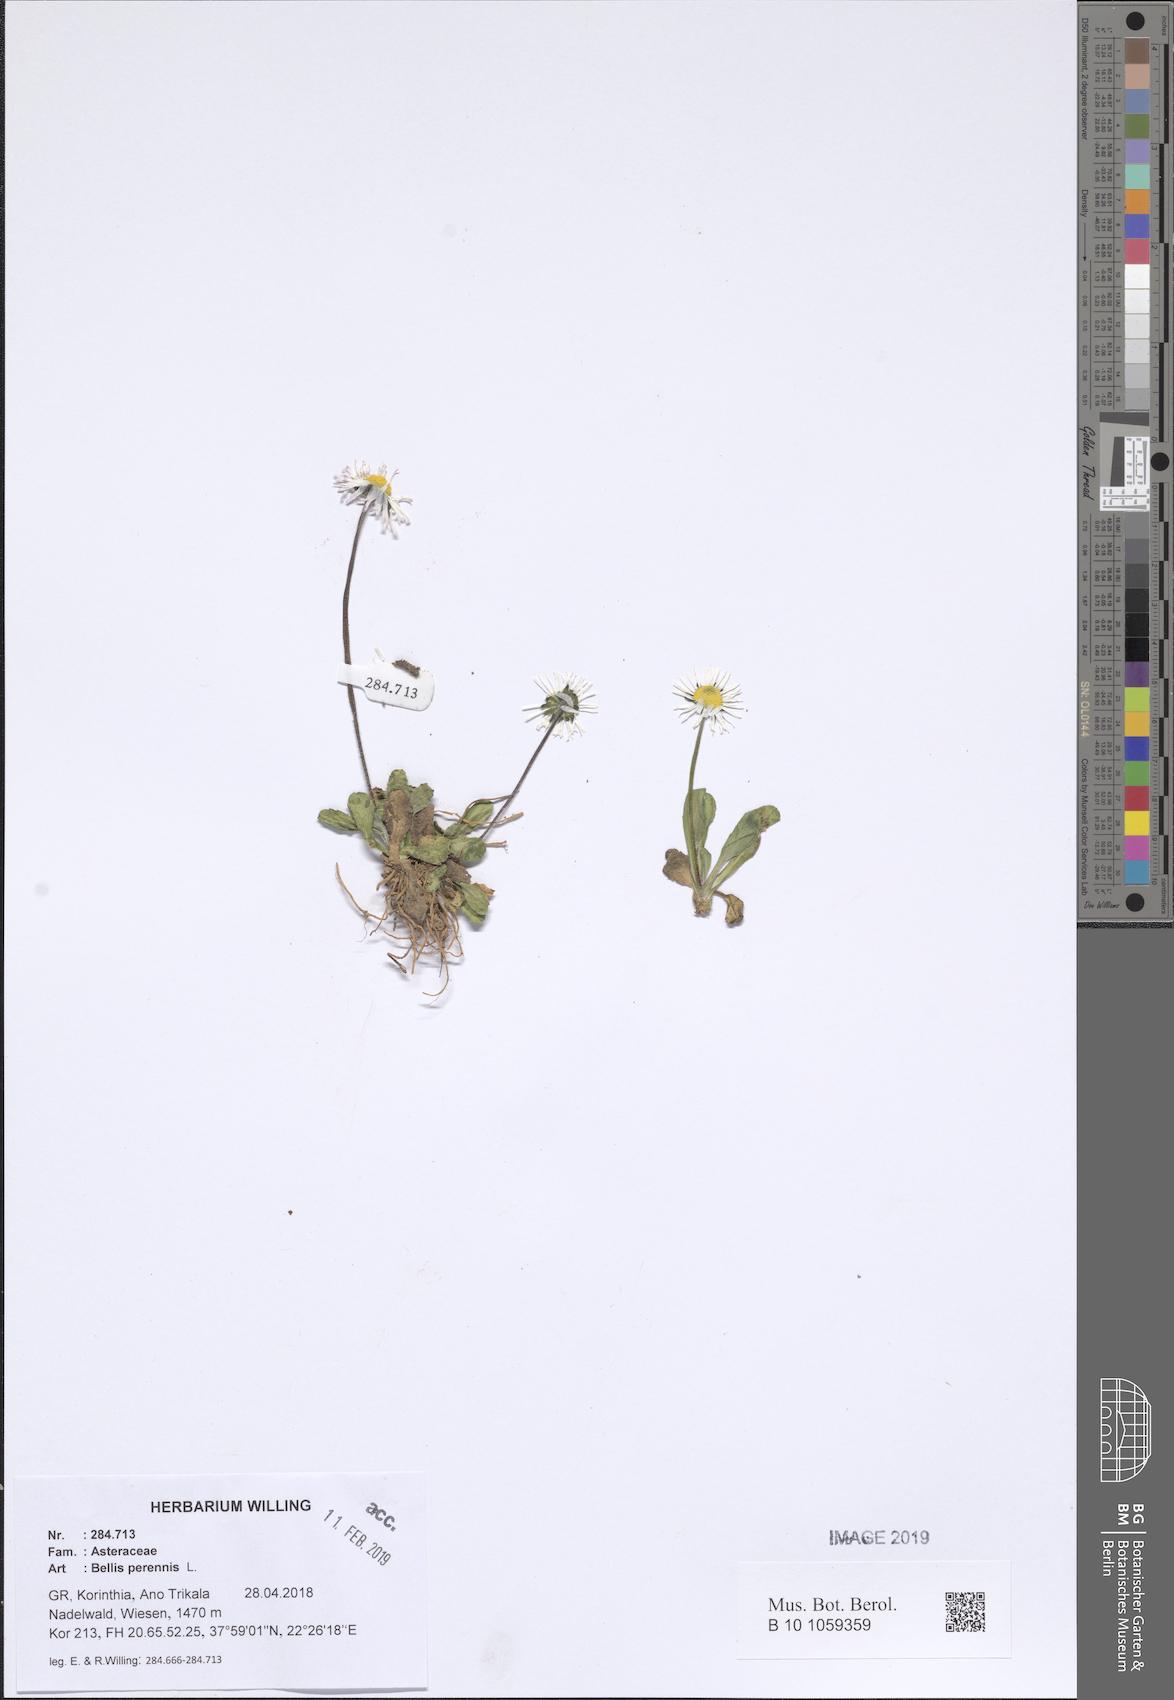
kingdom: Plantae
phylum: Tracheophyta
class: Magnoliopsida
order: Asterales
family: Asteraceae
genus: Bellis
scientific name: Bellis perennis
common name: Lawndaisy
